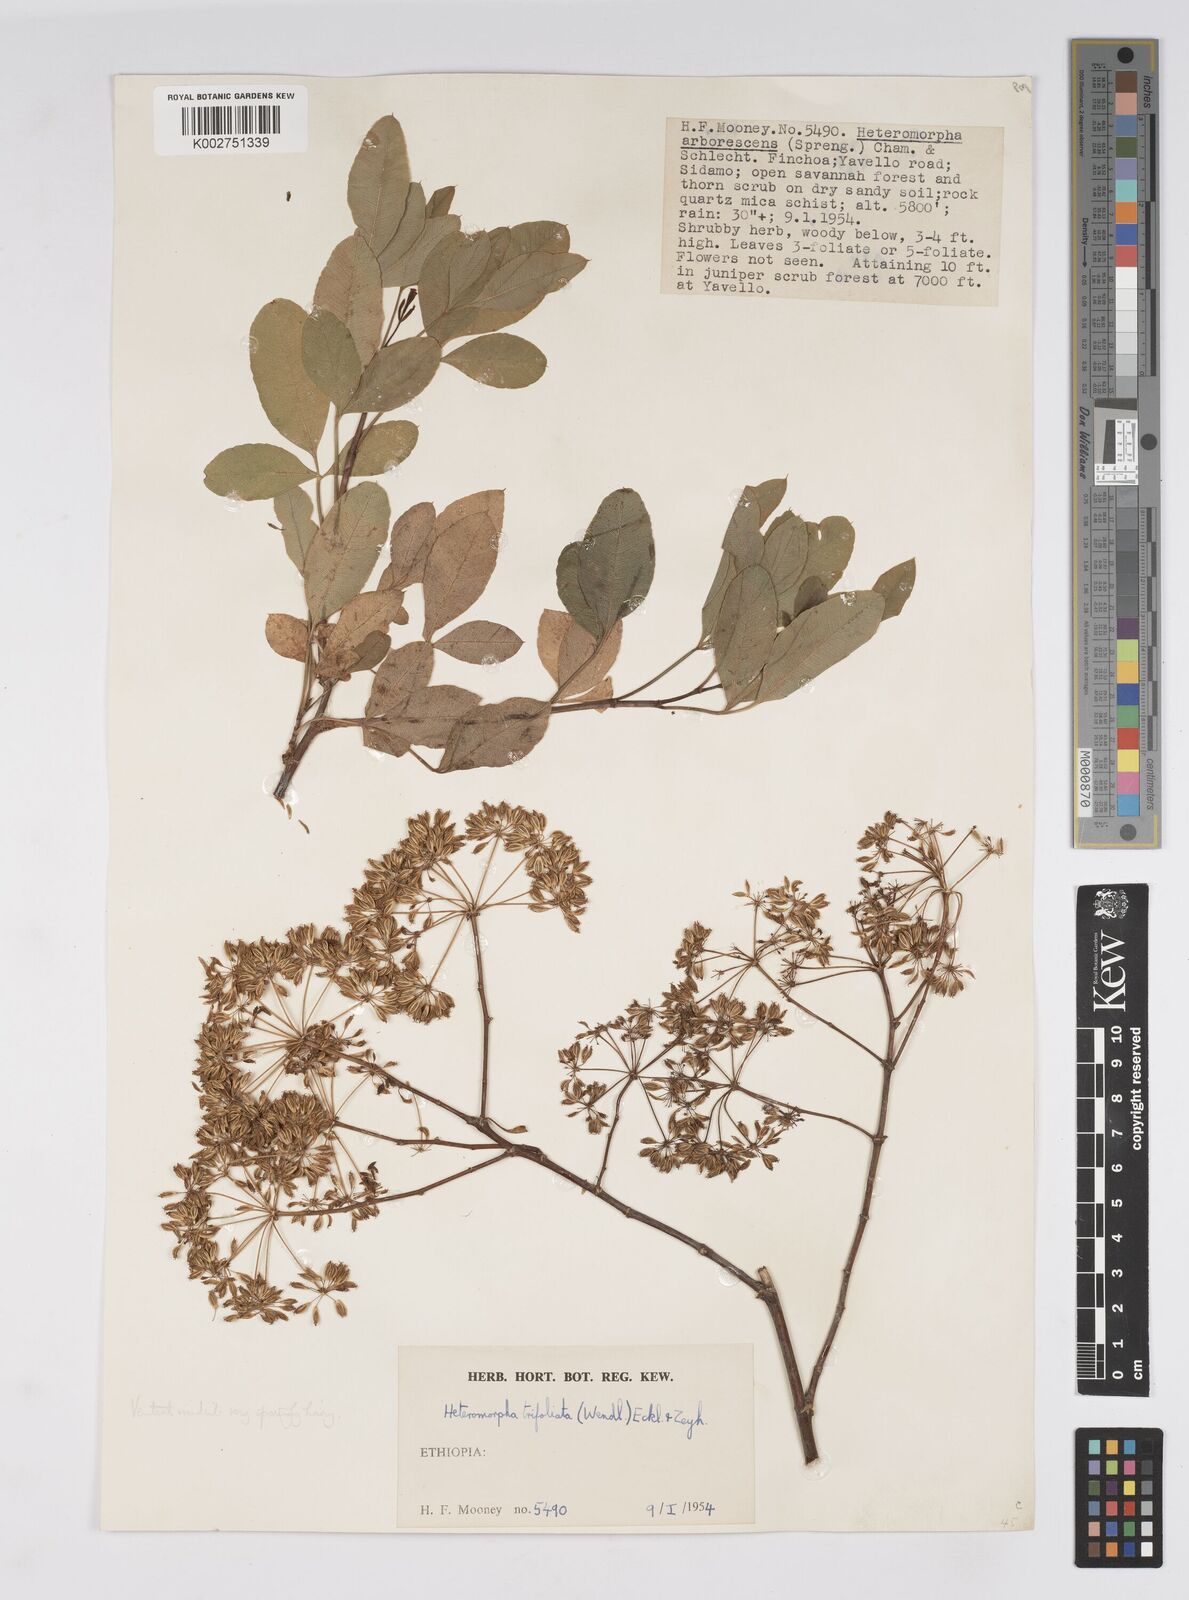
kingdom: Plantae
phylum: Tracheophyta
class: Magnoliopsida
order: Apiales
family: Apiaceae
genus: Heteromorpha
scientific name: Heteromorpha
